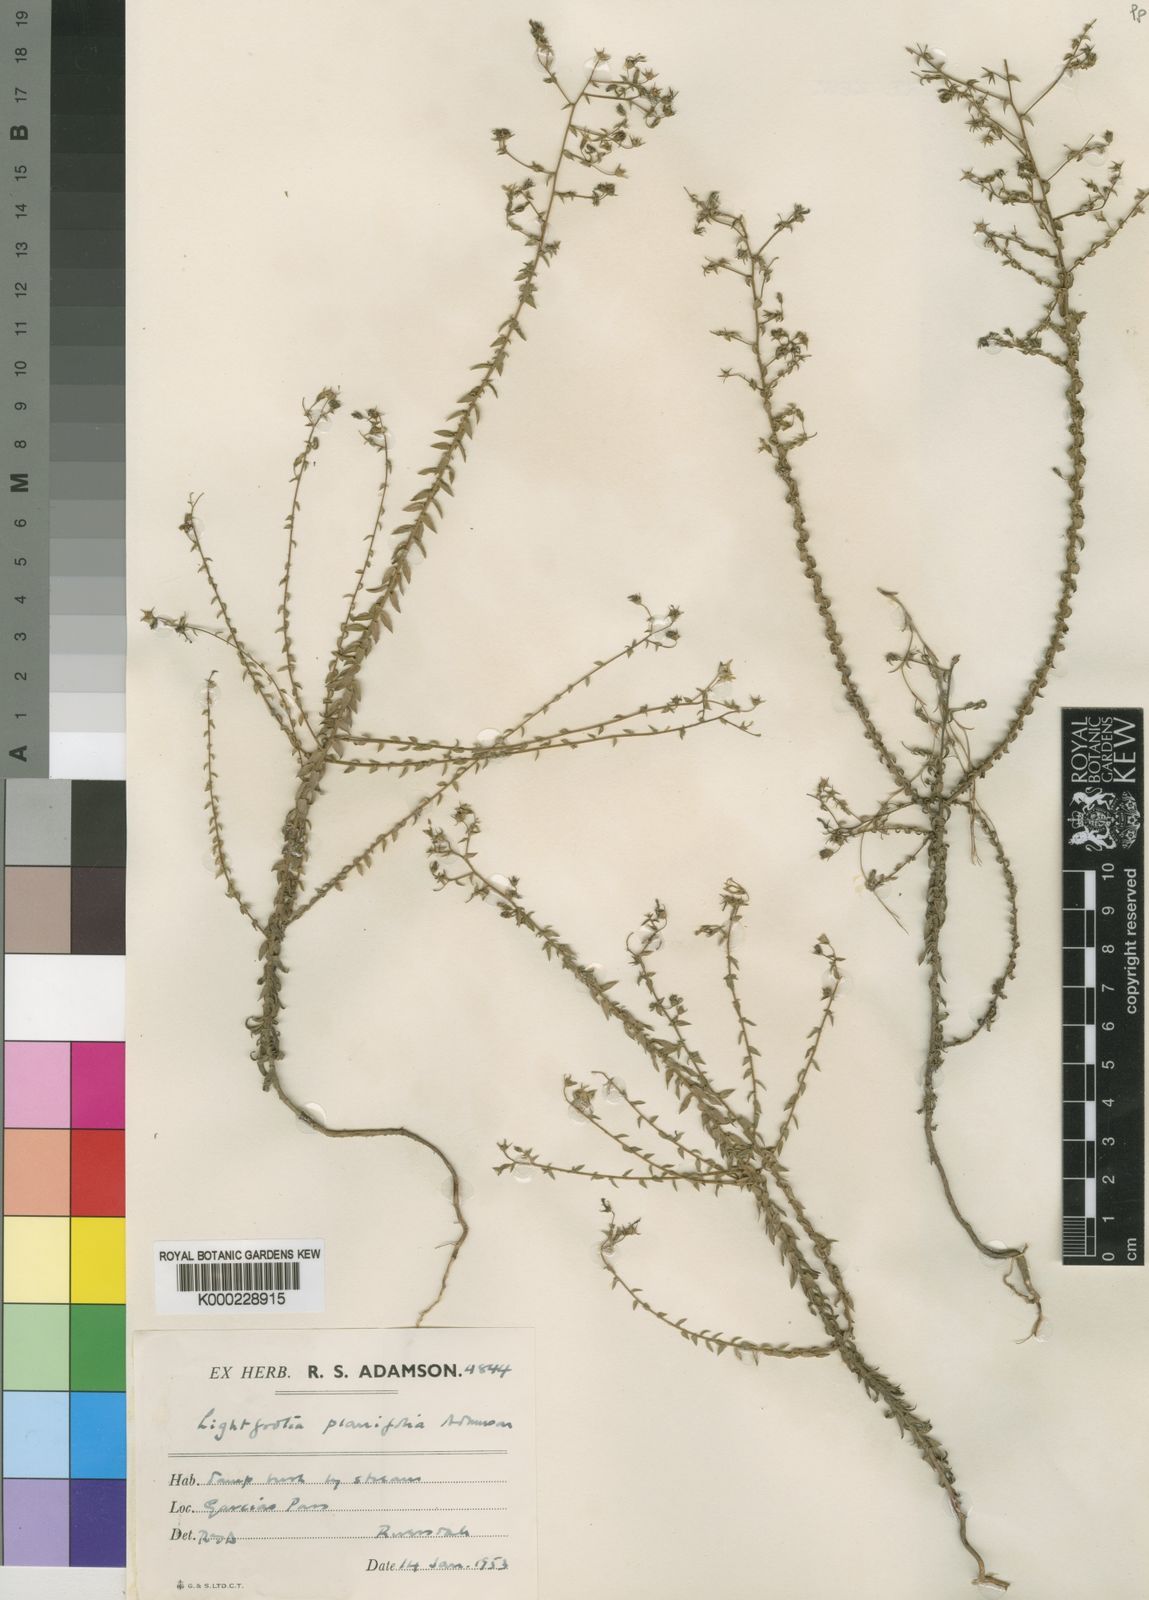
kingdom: Plantae
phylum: Tracheophyta
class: Magnoliopsida
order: Asterales
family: Campanulaceae
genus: Wahlenbergia
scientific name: Wahlenbergia riversdalensis
